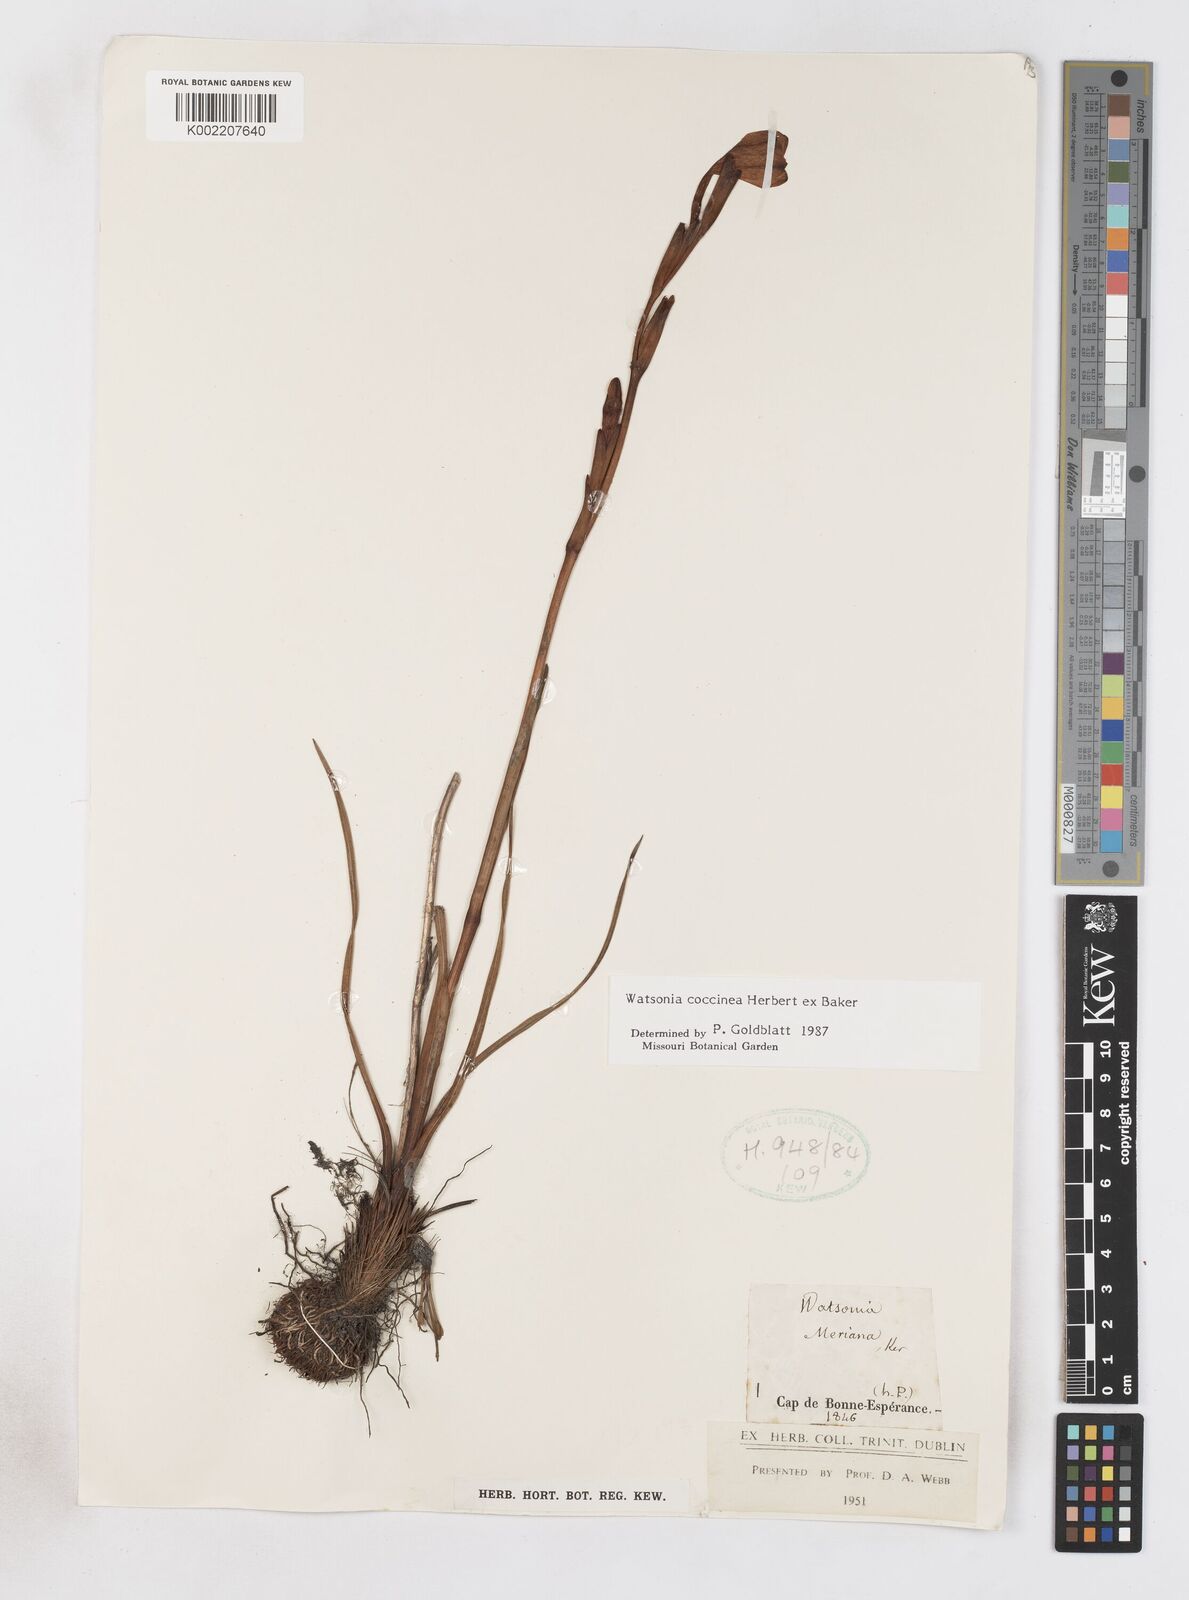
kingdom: Plantae
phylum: Tracheophyta
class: Liliopsida
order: Asparagales
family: Iridaceae
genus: Watsonia
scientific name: Watsonia coccinea
